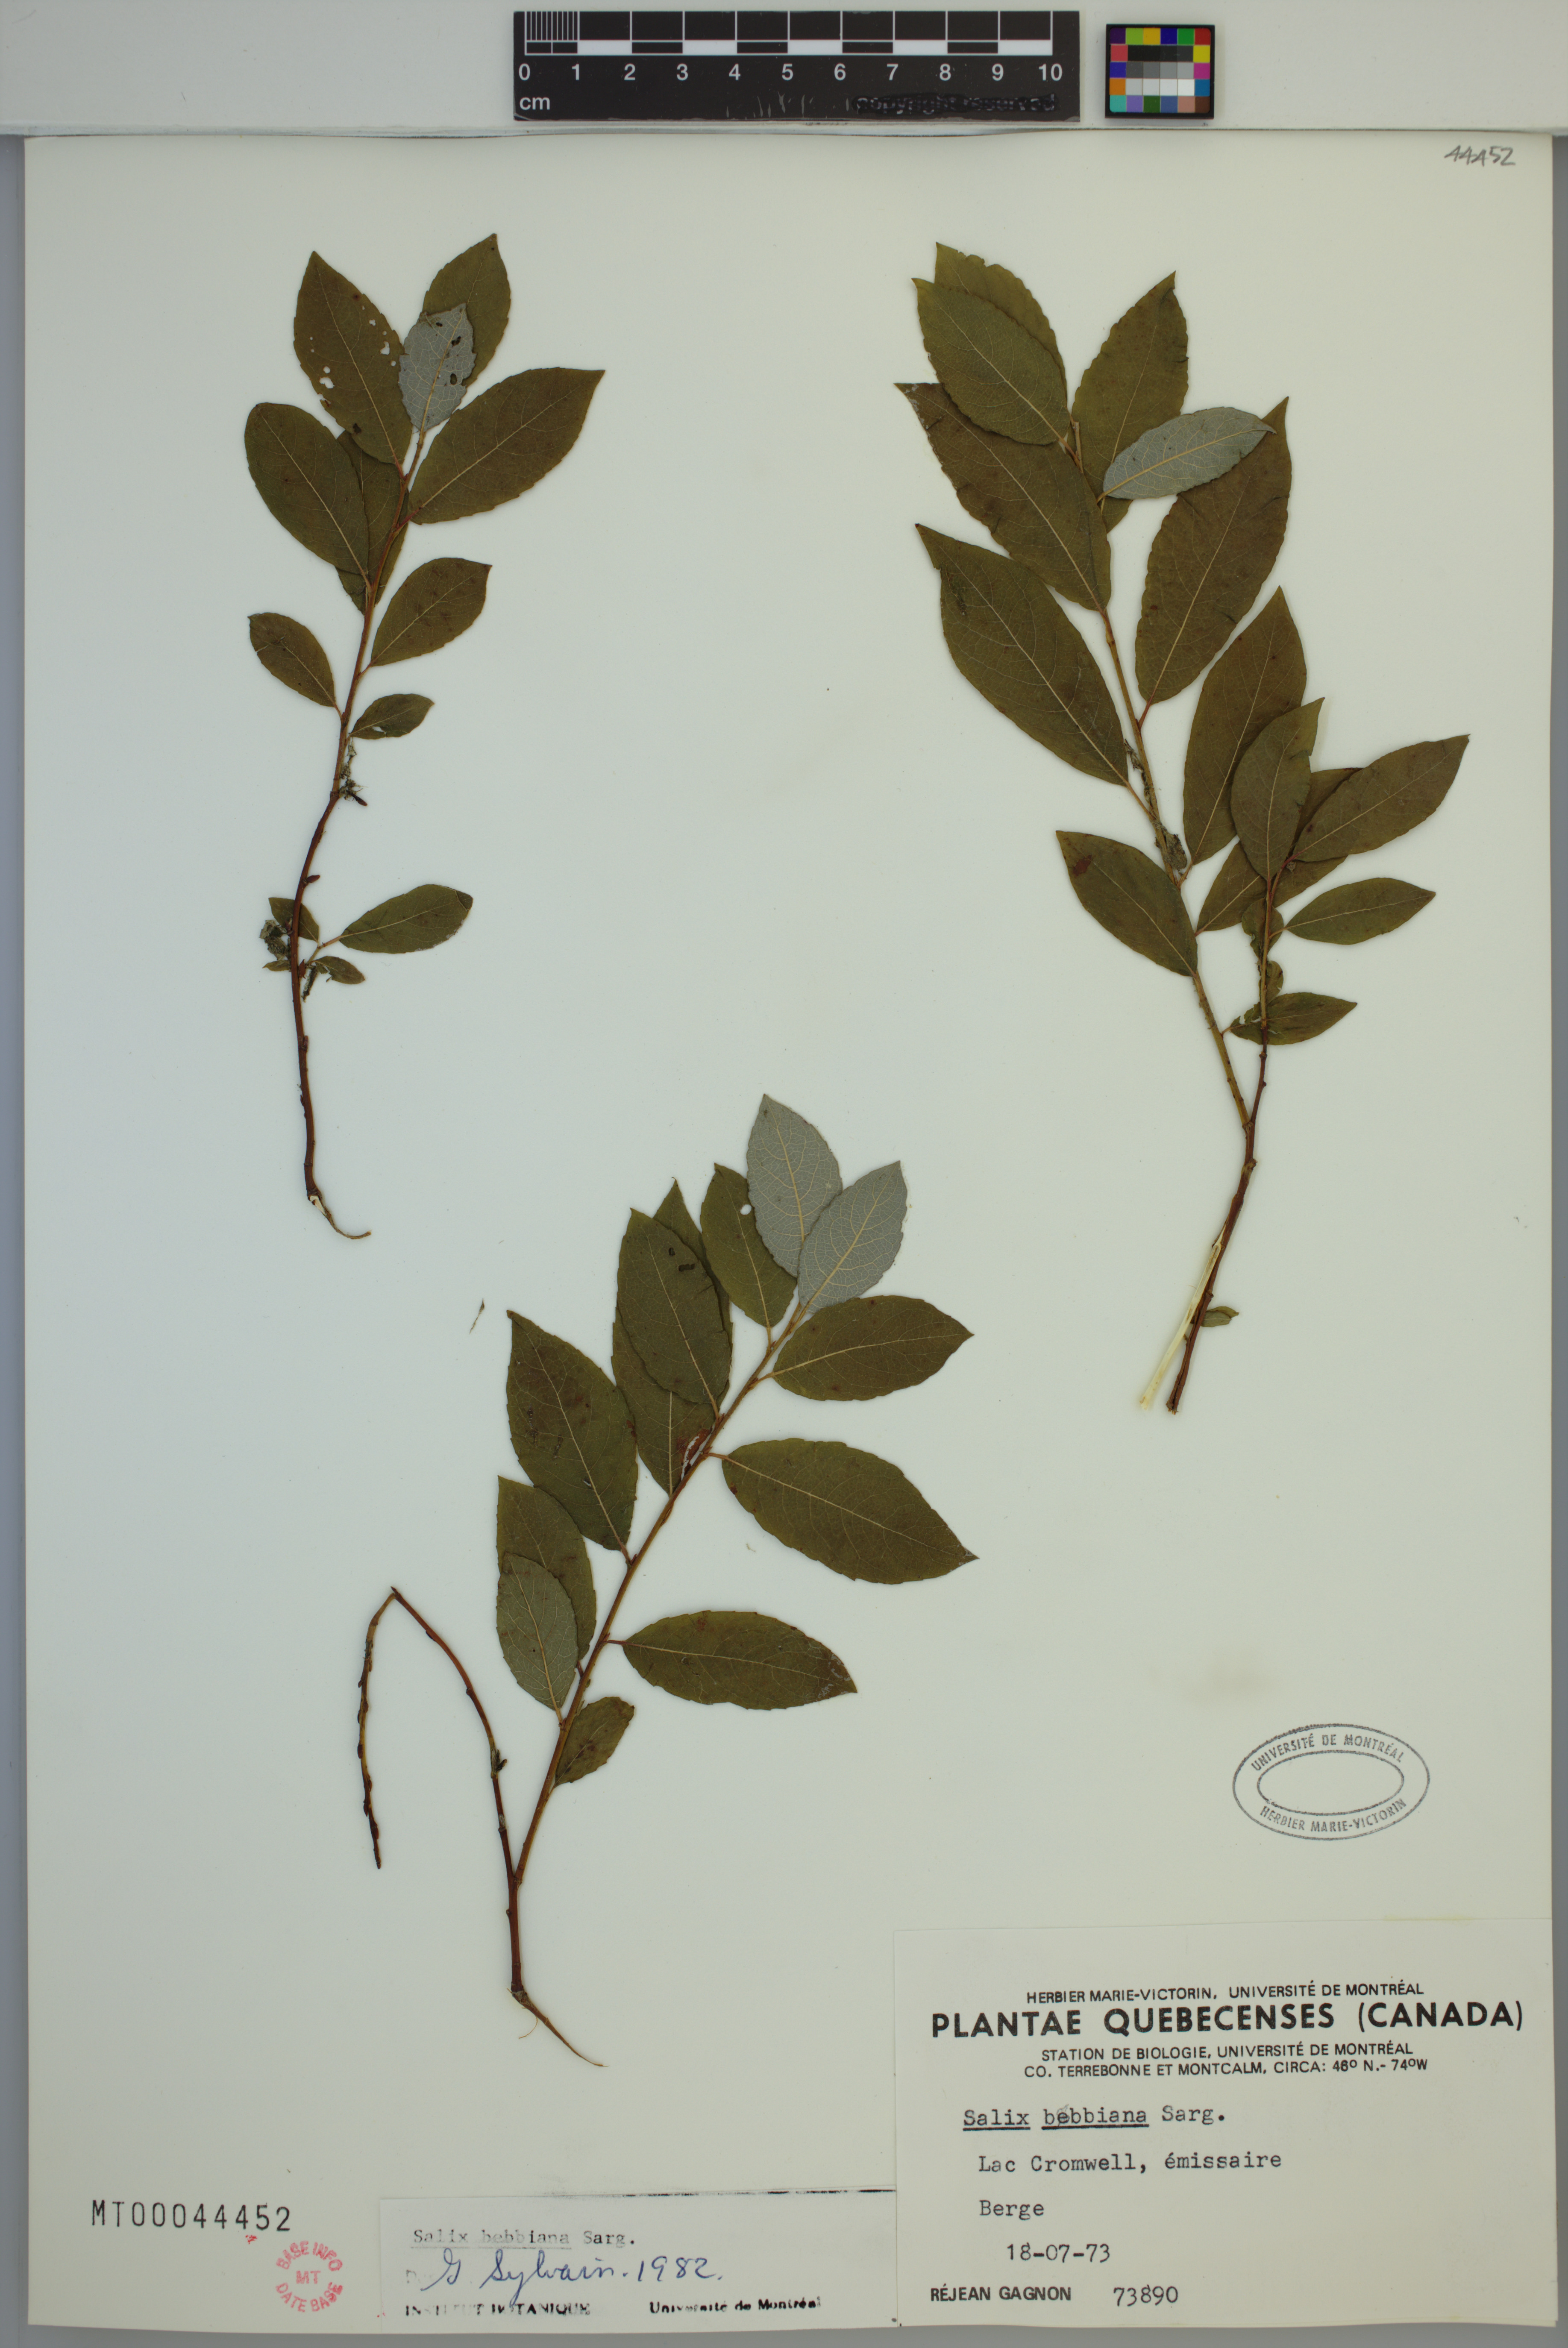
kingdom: Plantae
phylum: Tracheophyta
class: Magnoliopsida
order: Malpighiales
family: Salicaceae
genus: Salix
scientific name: Salix bebbiana
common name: Bebb's willow
